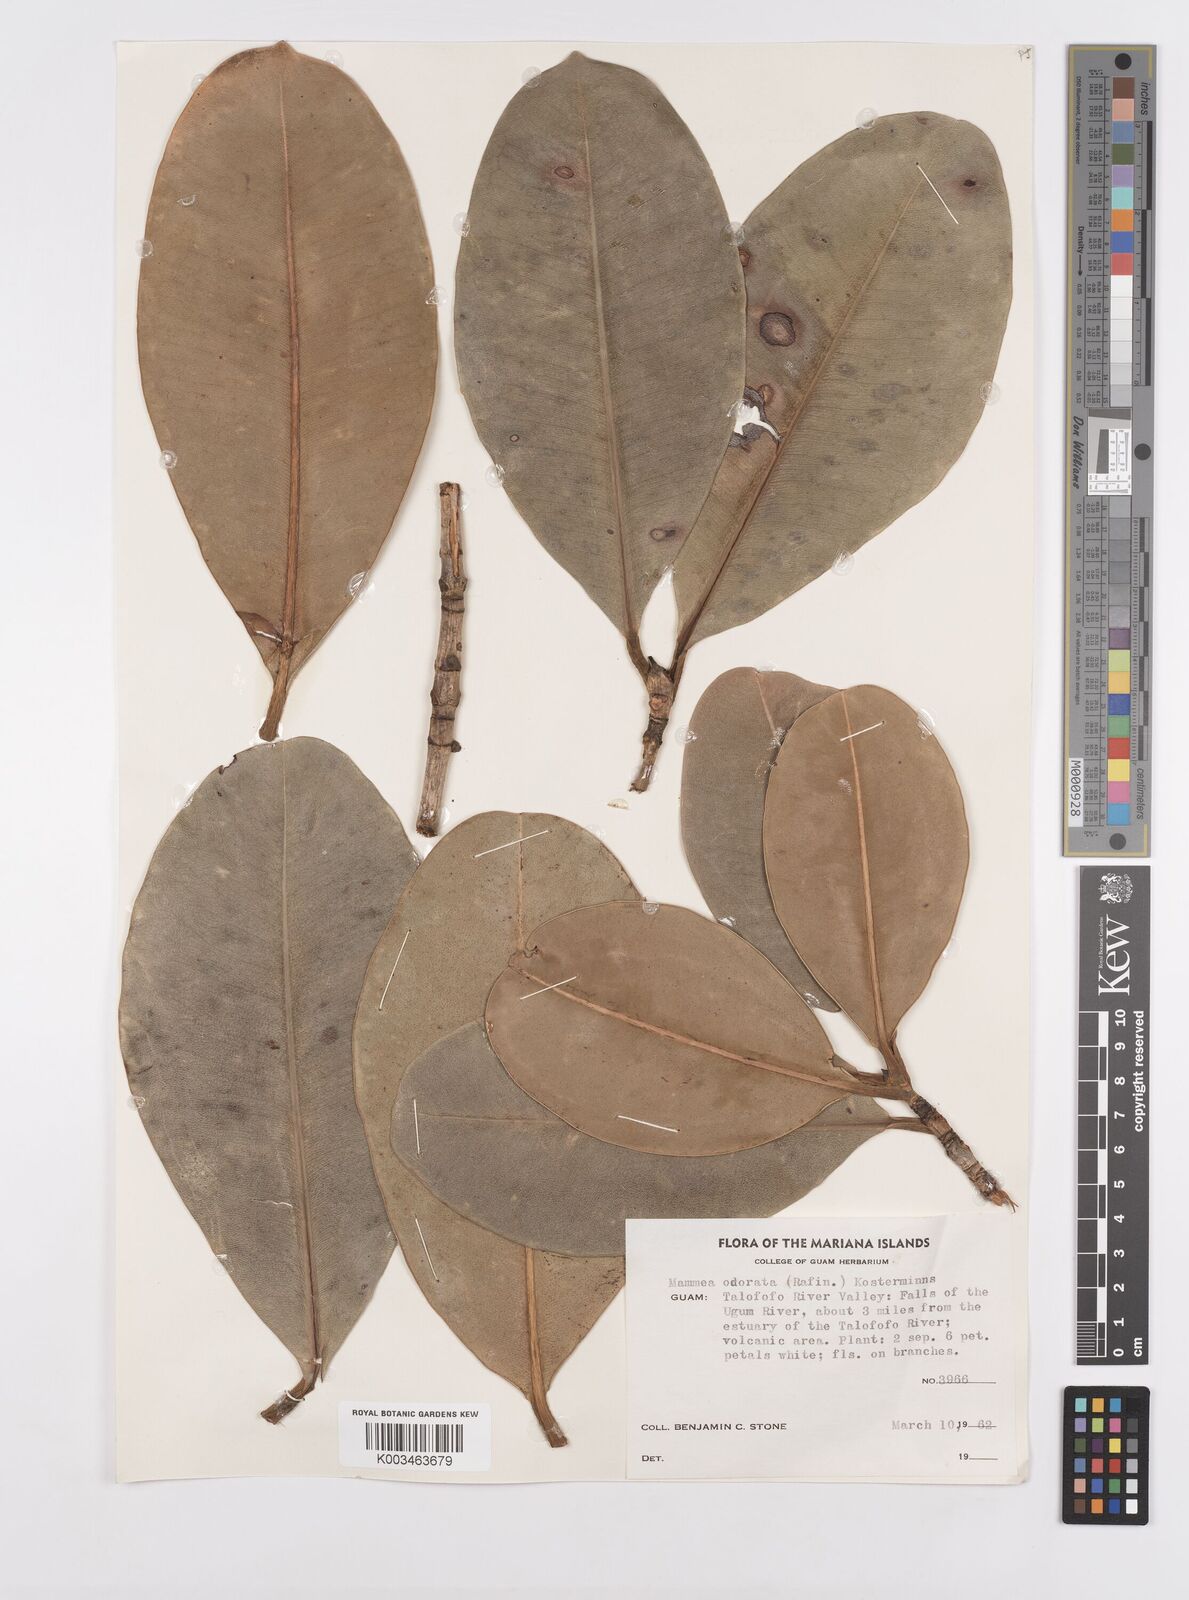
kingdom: Plantae
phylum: Tracheophyta
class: Magnoliopsida
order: Malpighiales
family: Calophyllaceae
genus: Mammea
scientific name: Mammea odorata
